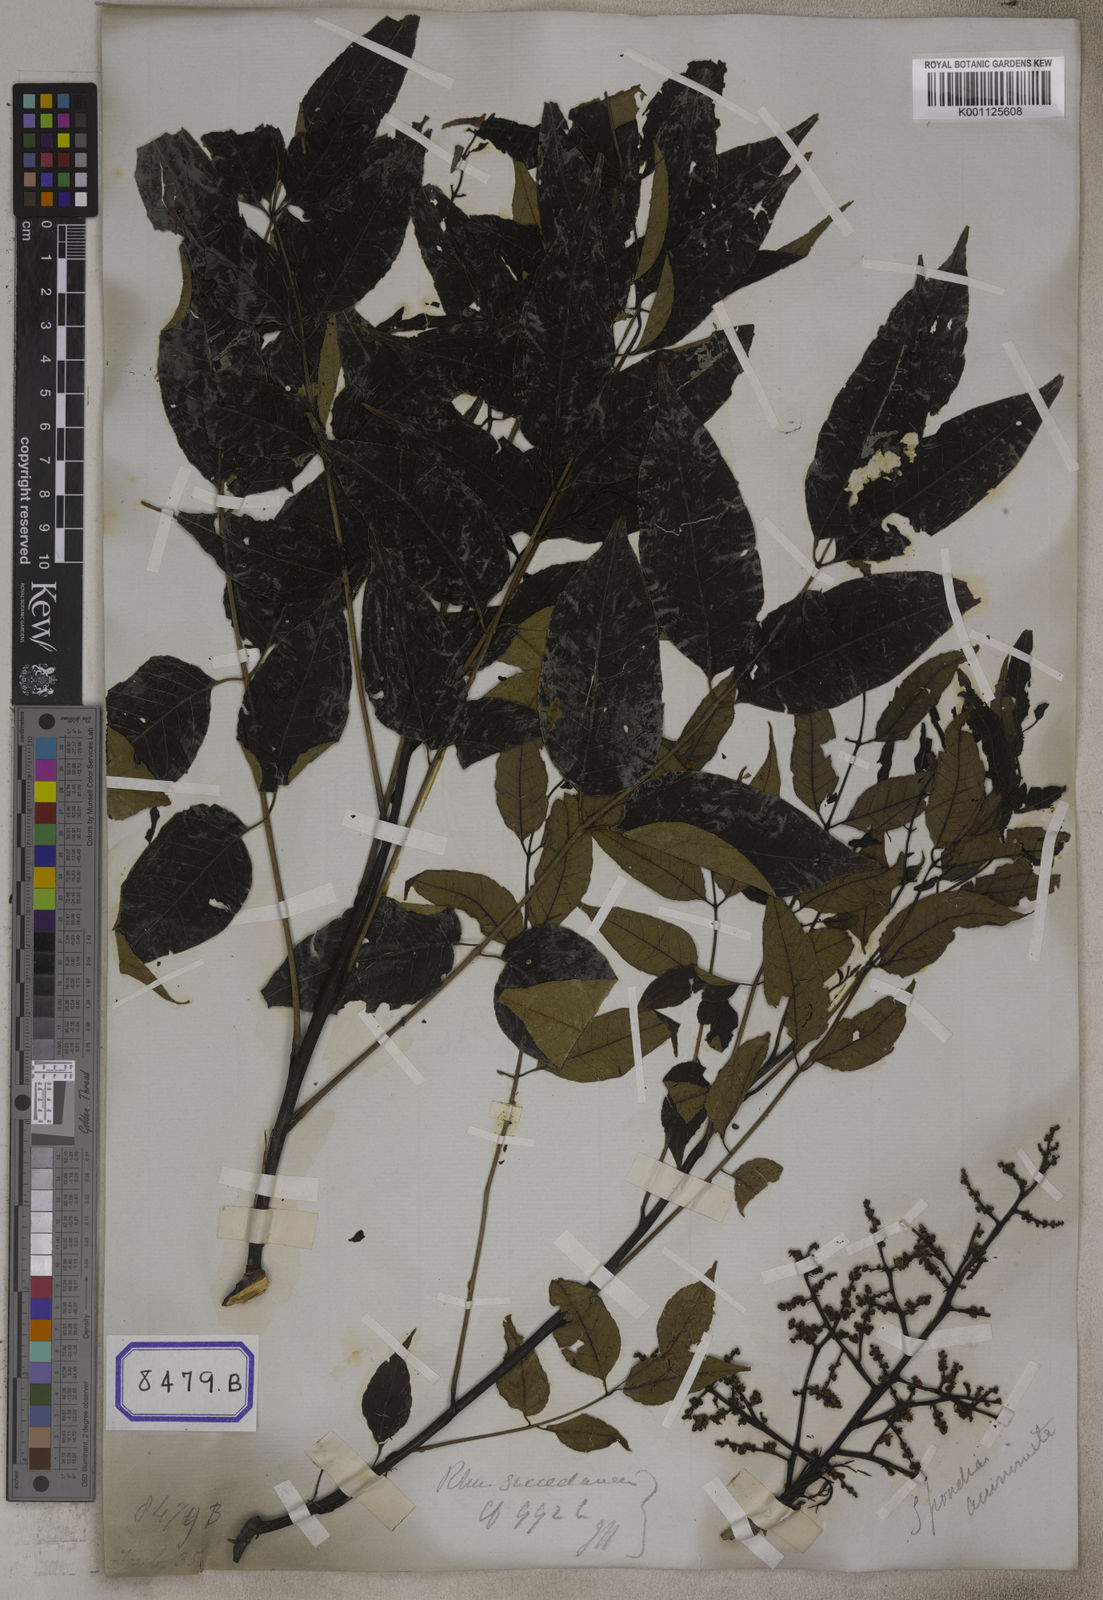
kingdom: Plantae
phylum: Tracheophyta
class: Magnoliopsida
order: Sapindales
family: Anacardiaceae
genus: Spondias
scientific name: Spondias
